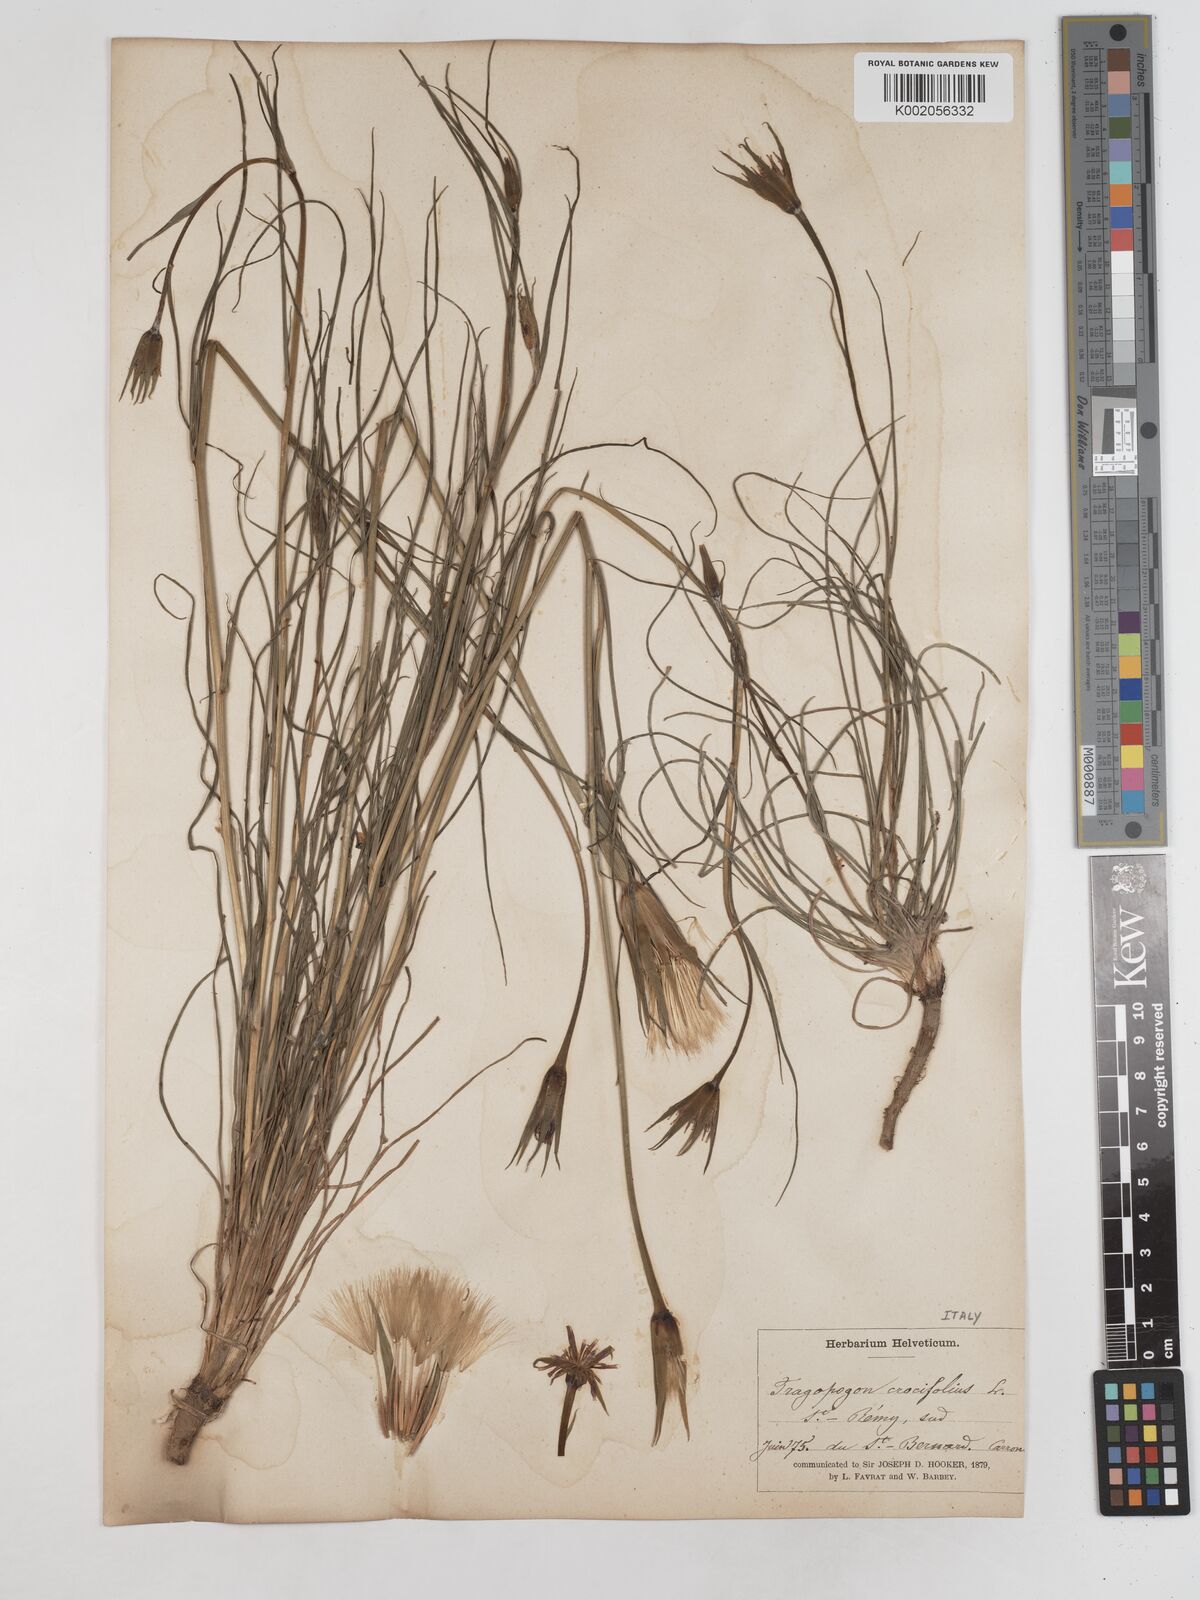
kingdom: Plantae
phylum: Tracheophyta
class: Magnoliopsida
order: Asterales
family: Asteraceae
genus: Tragopogon
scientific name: Tragopogon crocifolius
